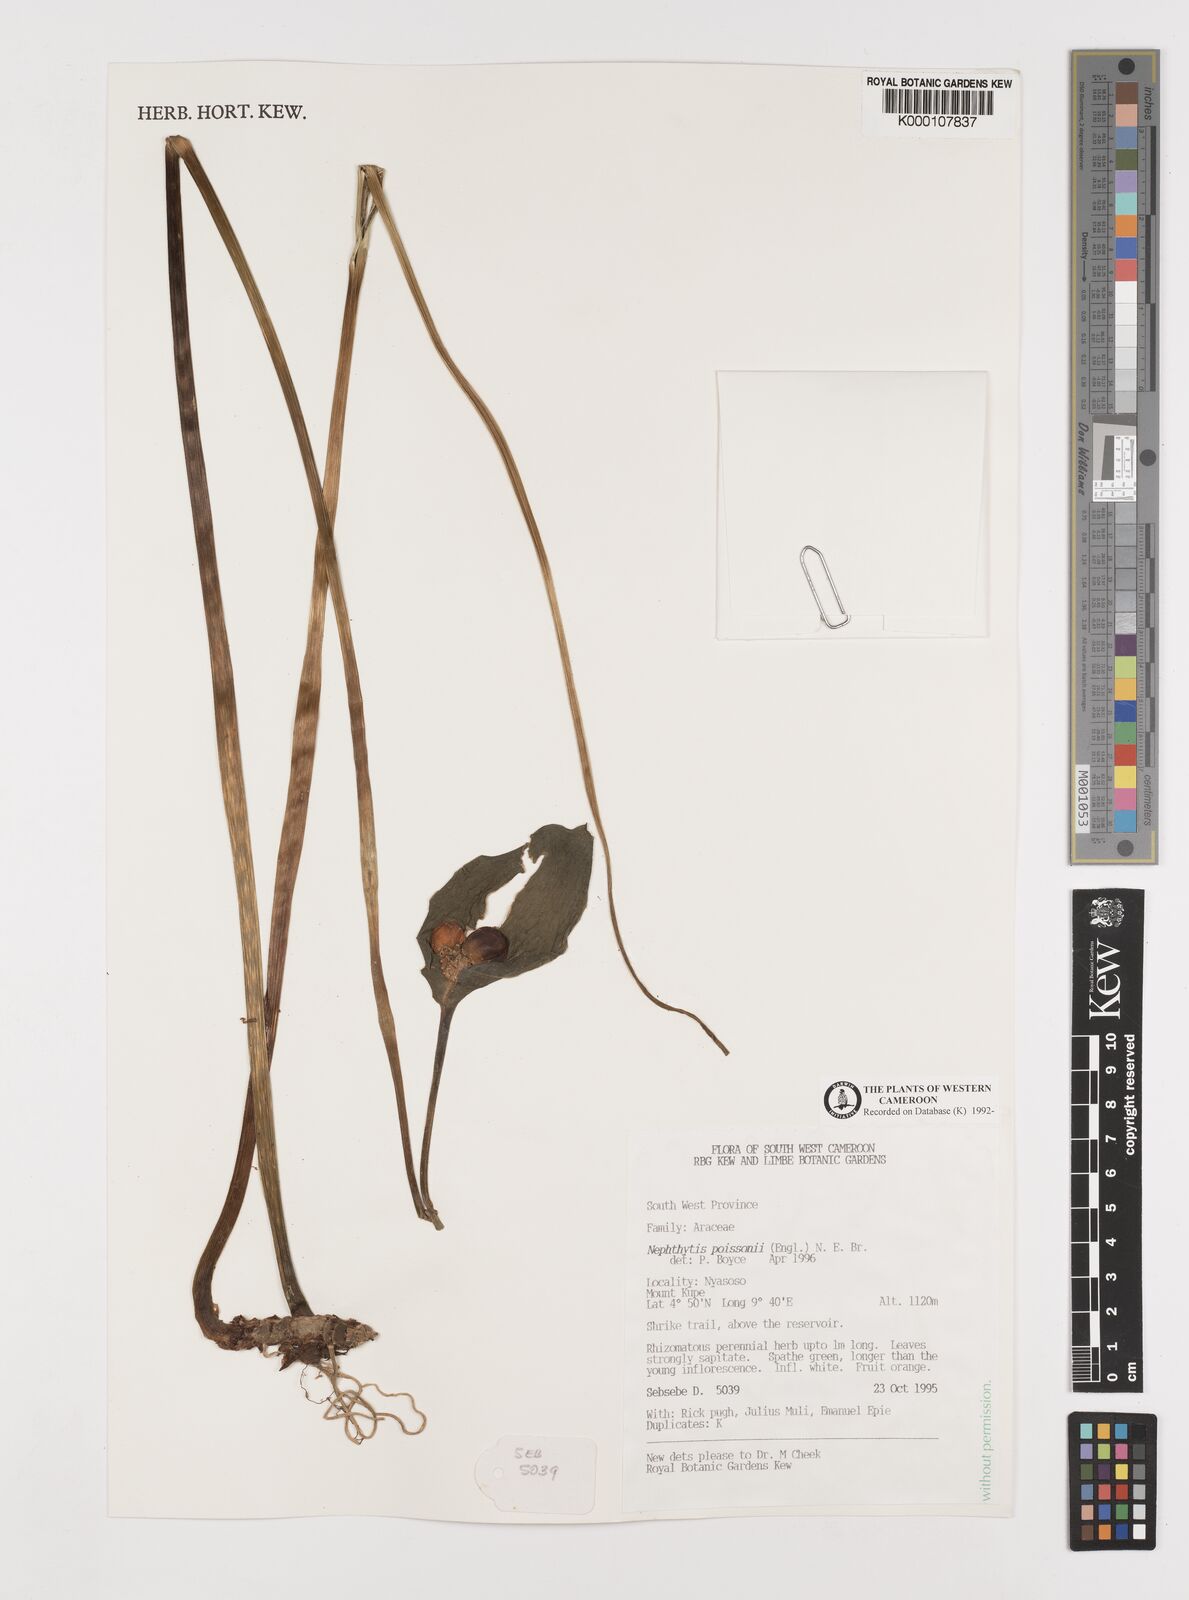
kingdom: Plantae
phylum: Tracheophyta
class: Liliopsida
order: Alismatales
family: Araceae
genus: Nephthytis
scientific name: Nephthytis poissonii
